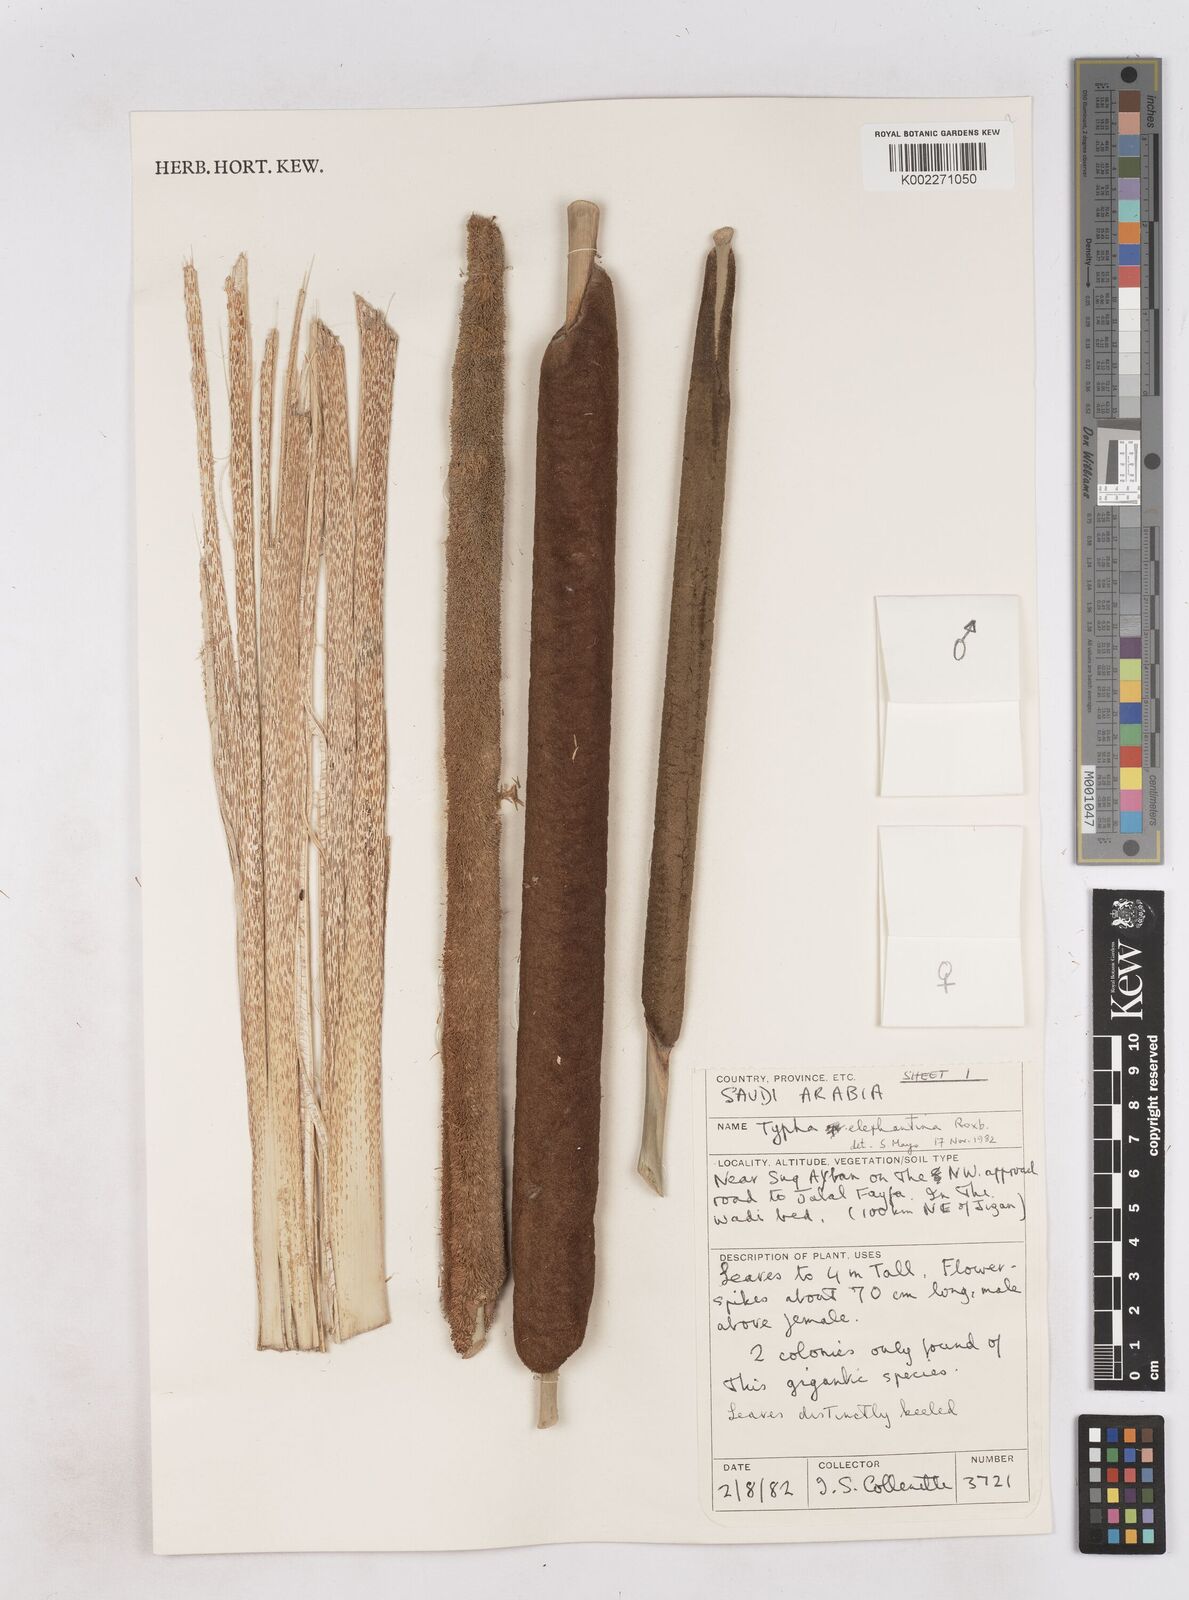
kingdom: Plantae
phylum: Tracheophyta
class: Liliopsida
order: Poales
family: Typhaceae
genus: Typha
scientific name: Typha elephantina
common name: Indian reed-grass
